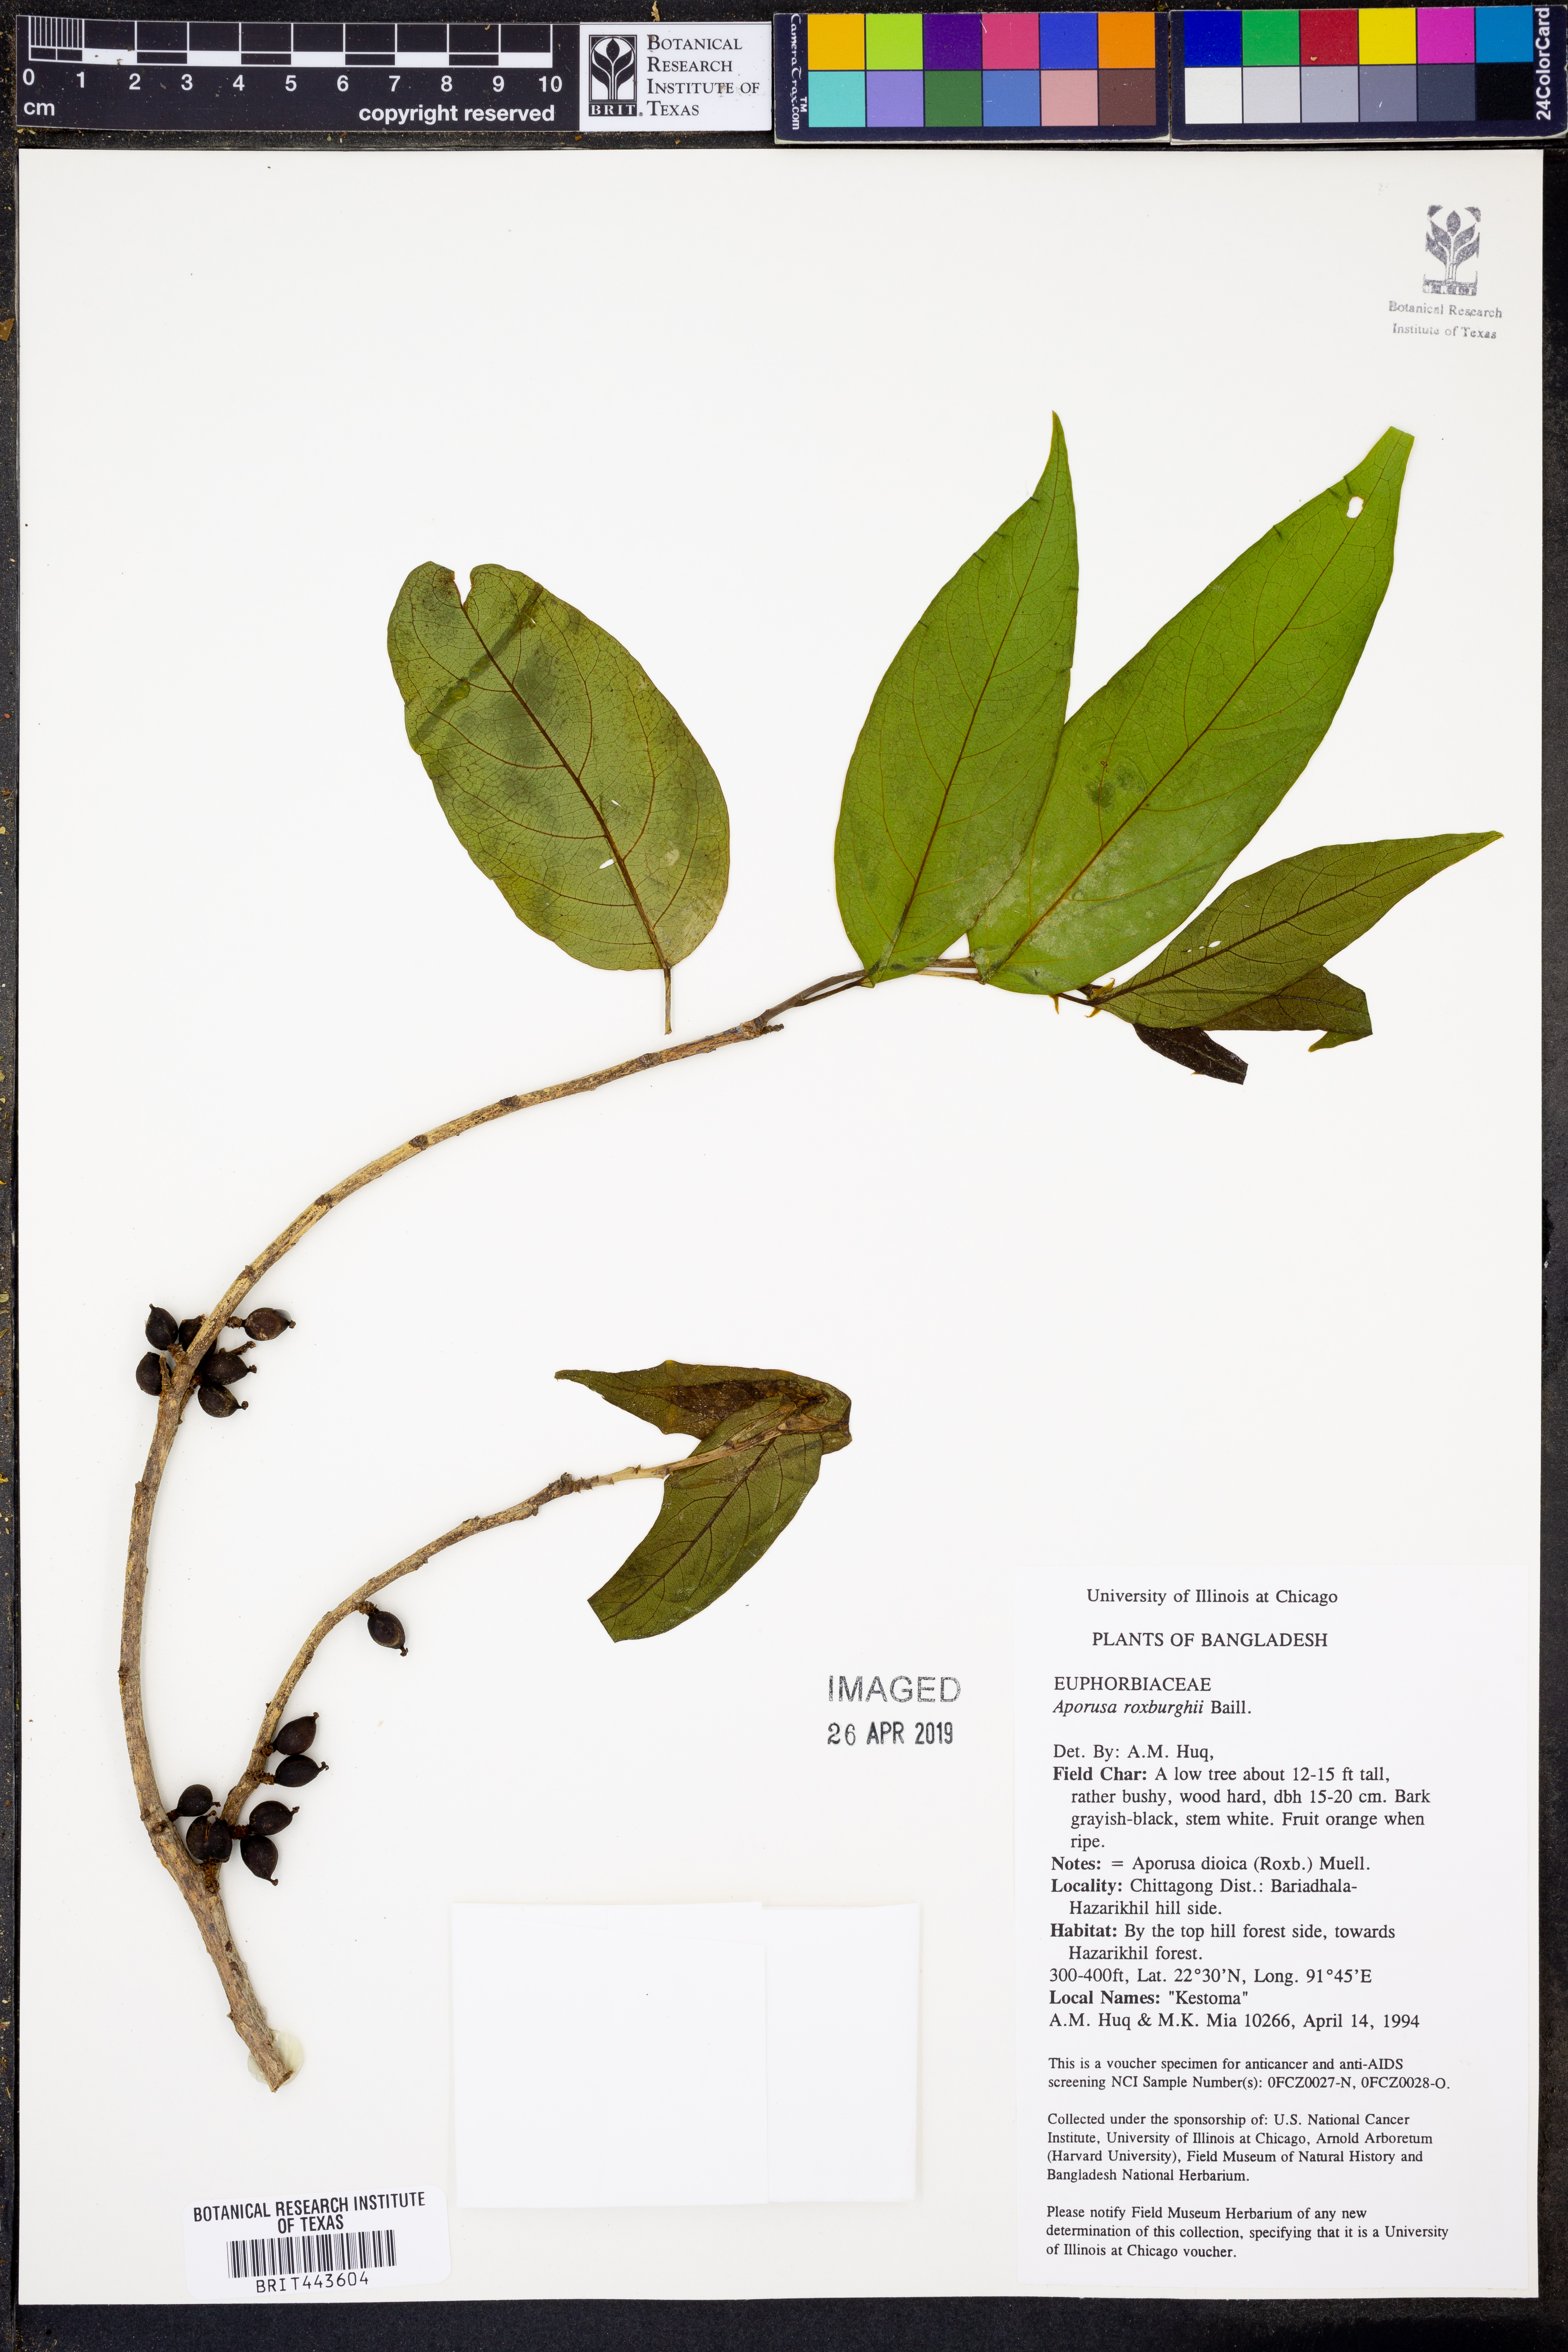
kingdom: Plantae
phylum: Tracheophyta
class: Magnoliopsida
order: Malpighiales
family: Phyllanthaceae
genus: Aporosa
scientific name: Aporosa octandra
